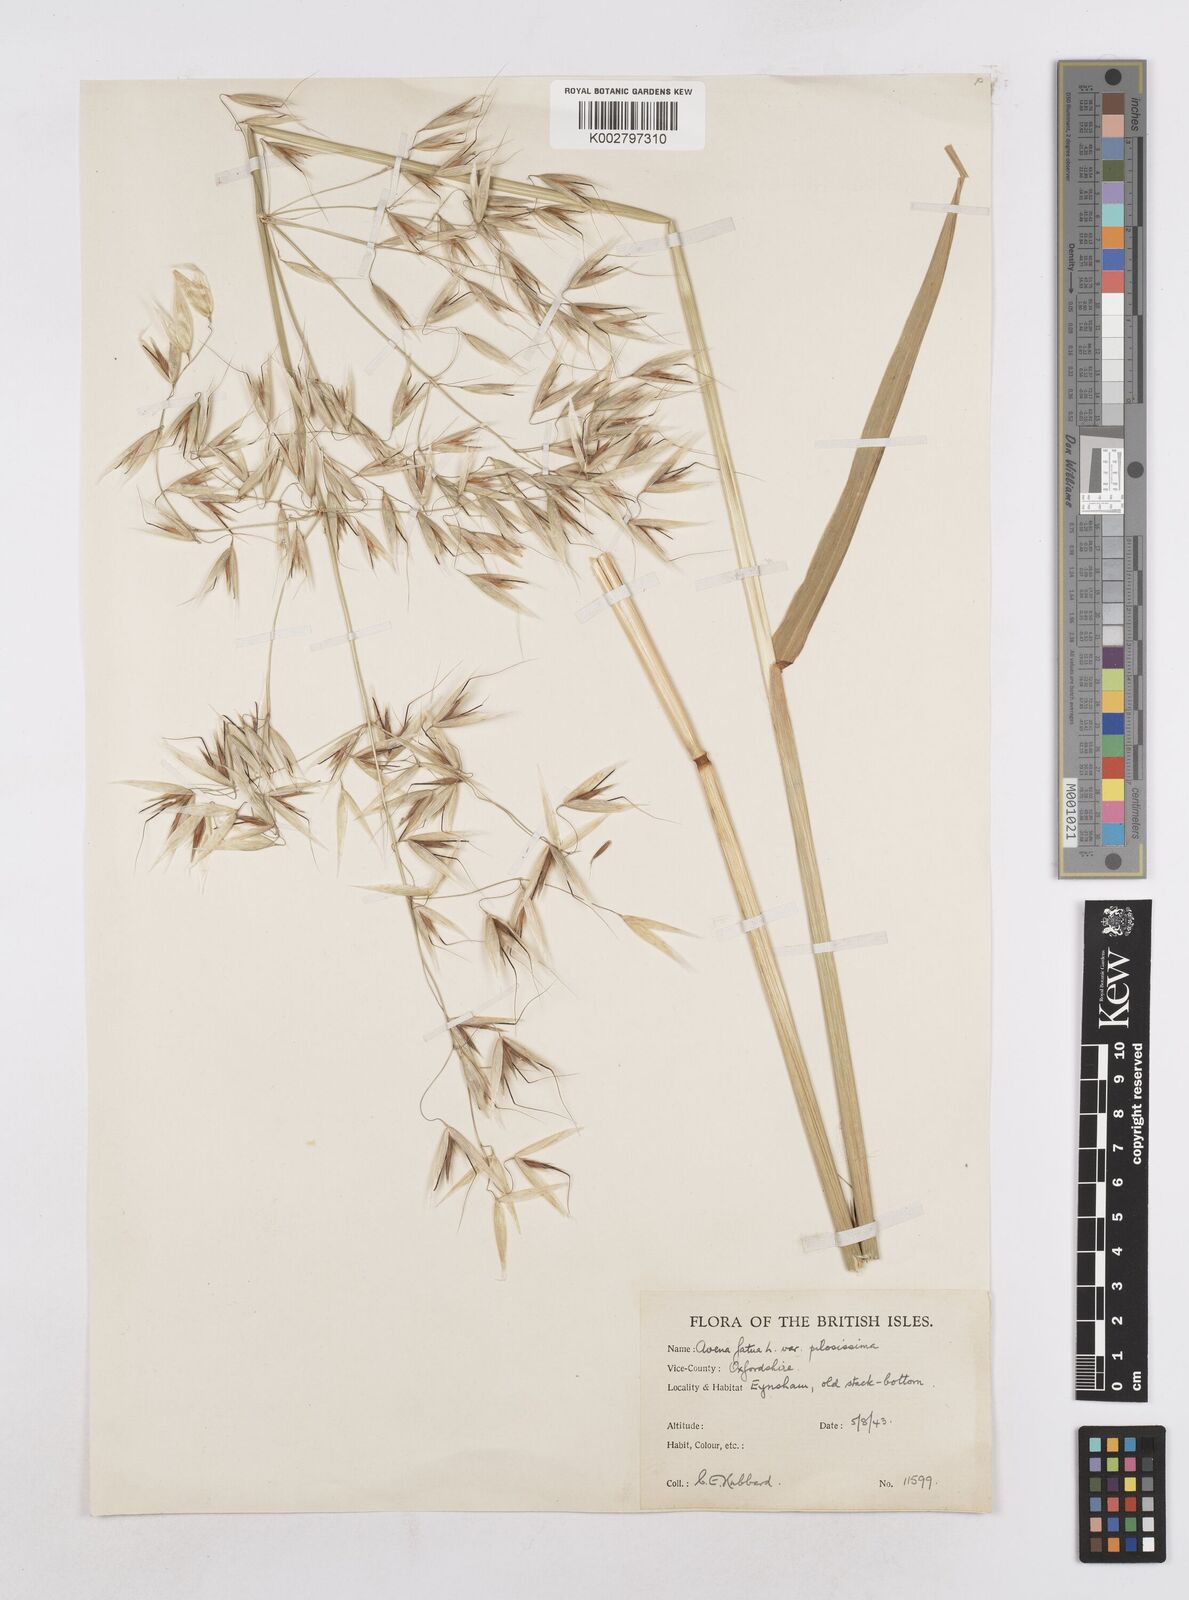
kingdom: Plantae
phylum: Tracheophyta
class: Liliopsida
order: Poales
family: Poaceae
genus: Avena
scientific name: Avena fatua
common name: Wild oat
